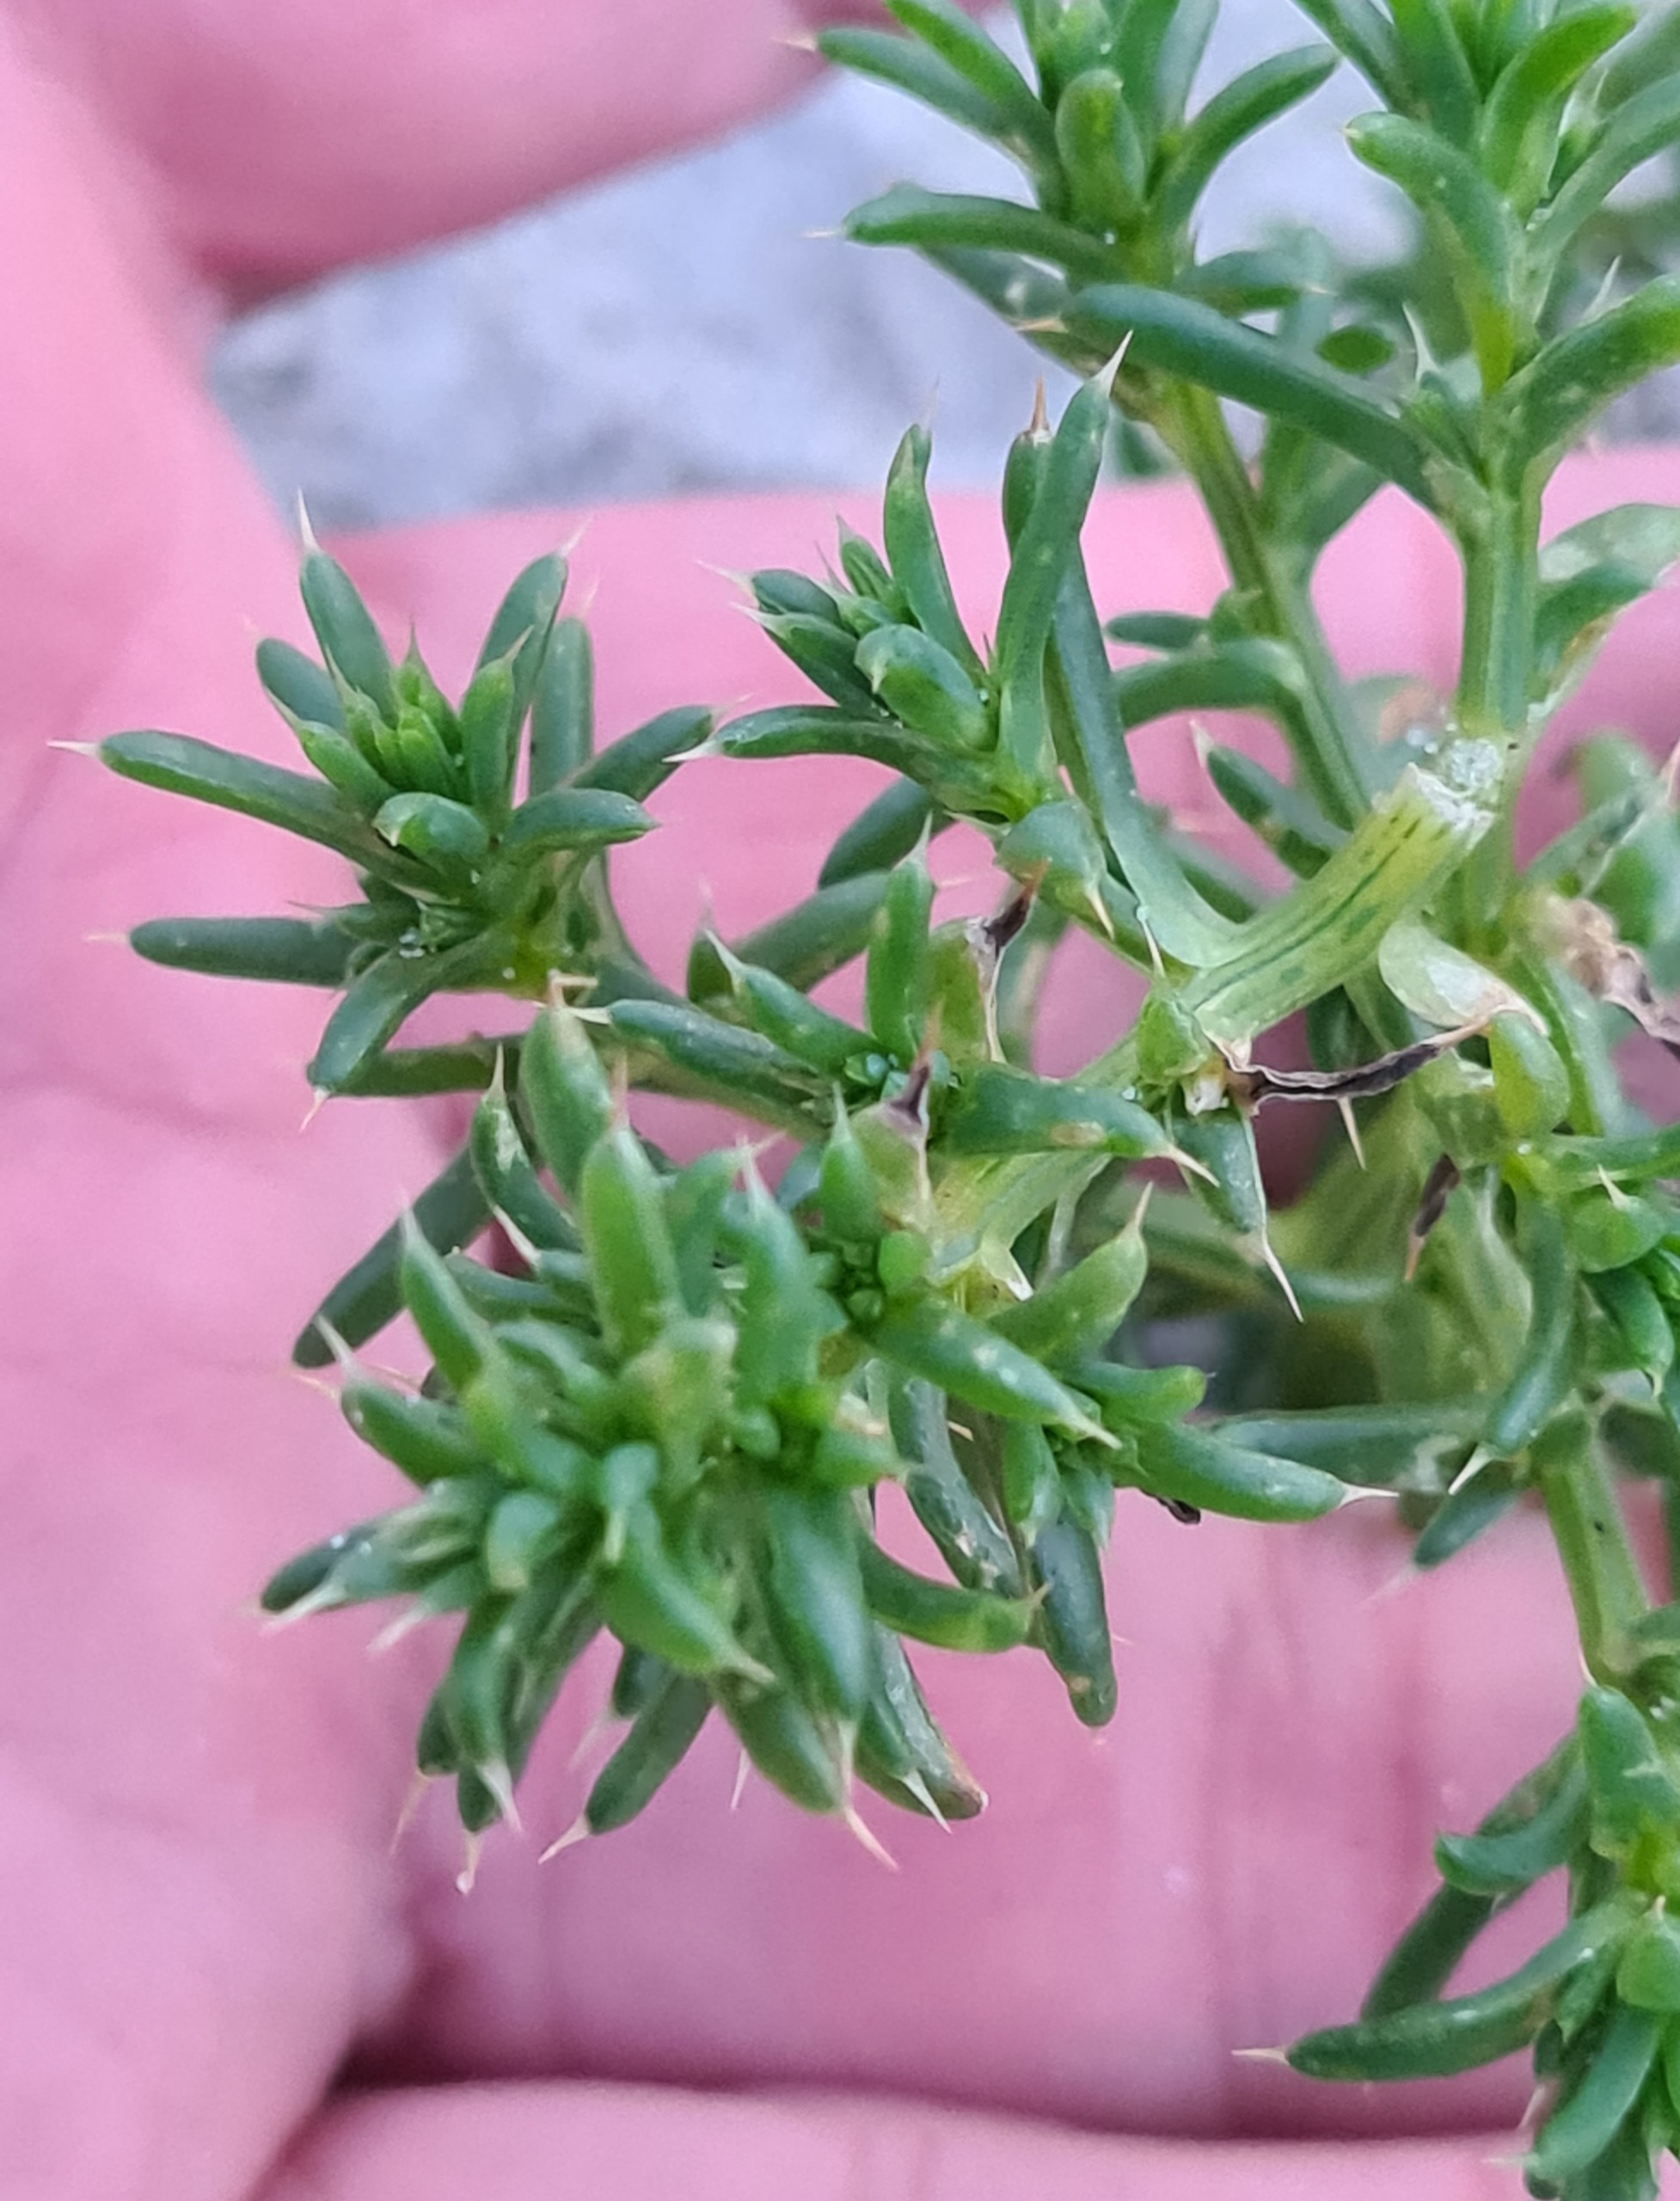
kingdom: Plantae
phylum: Tracheophyta
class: Magnoliopsida
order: Caryophyllales
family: Amaranthaceae
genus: Salsola
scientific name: Salsola kali
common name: Sodaurt
